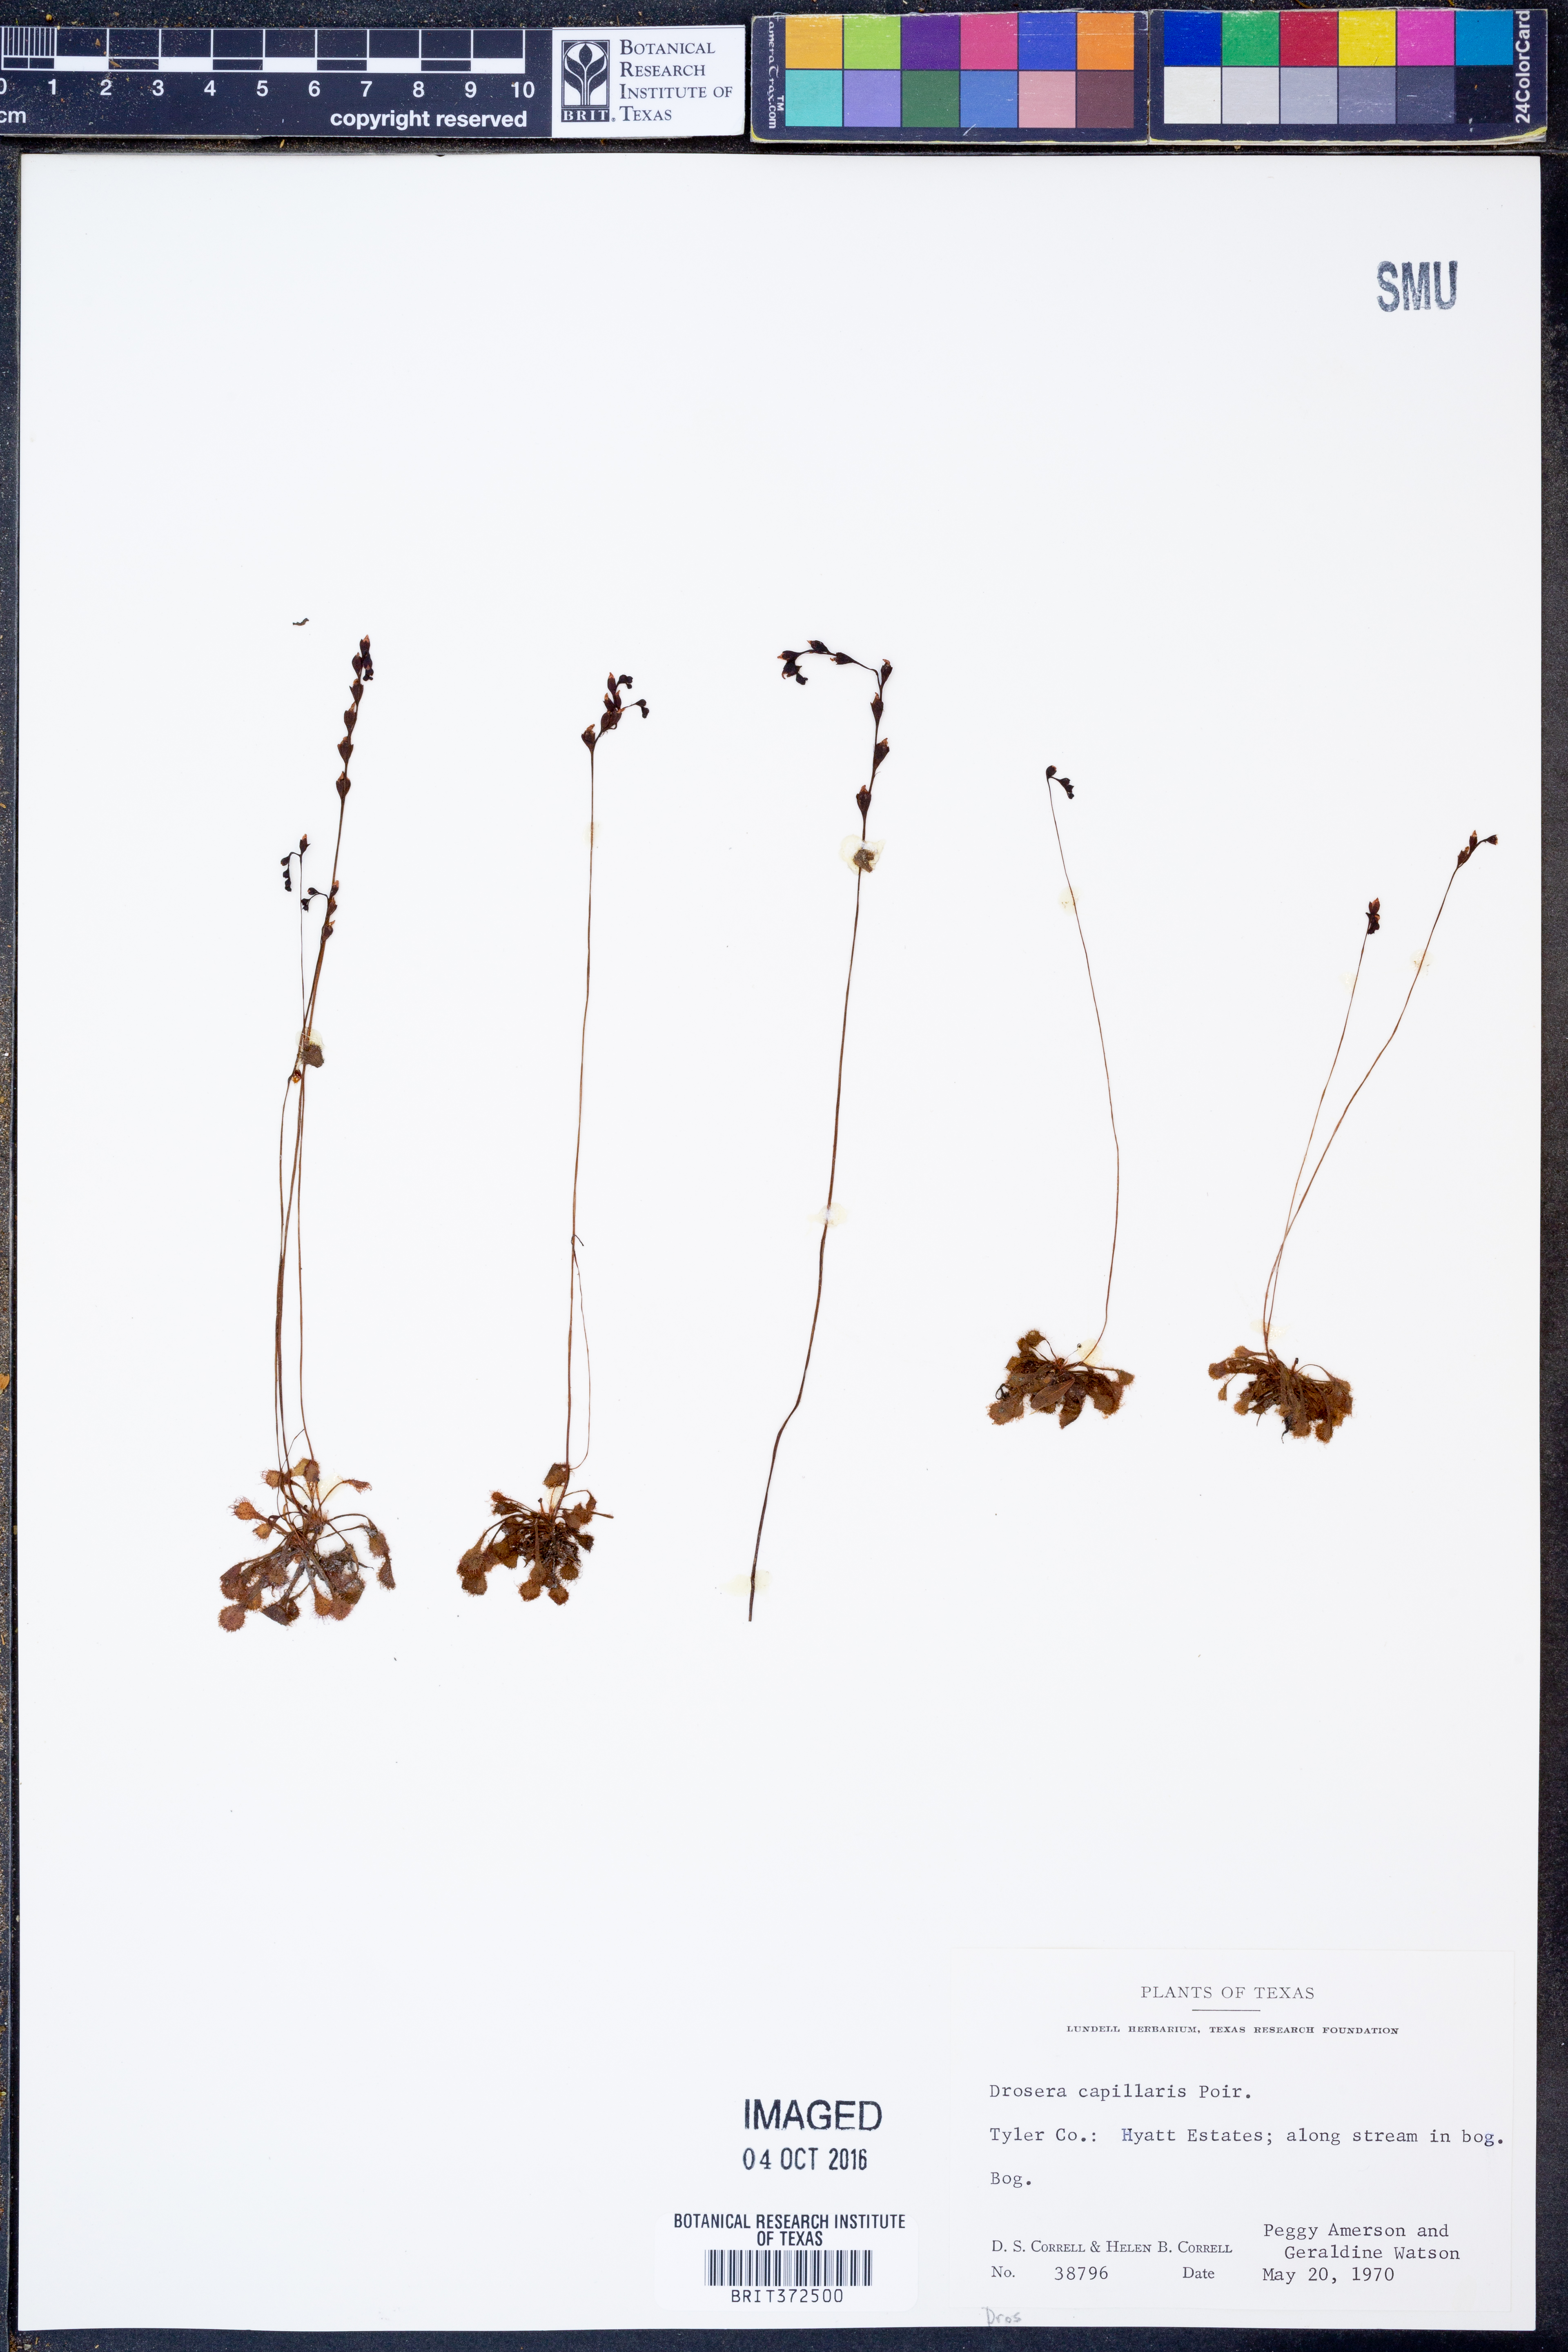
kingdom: Plantae
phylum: Tracheophyta
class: Magnoliopsida
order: Caryophyllales
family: Droseraceae
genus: Drosera
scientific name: Drosera capillaris
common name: Pink sundew
